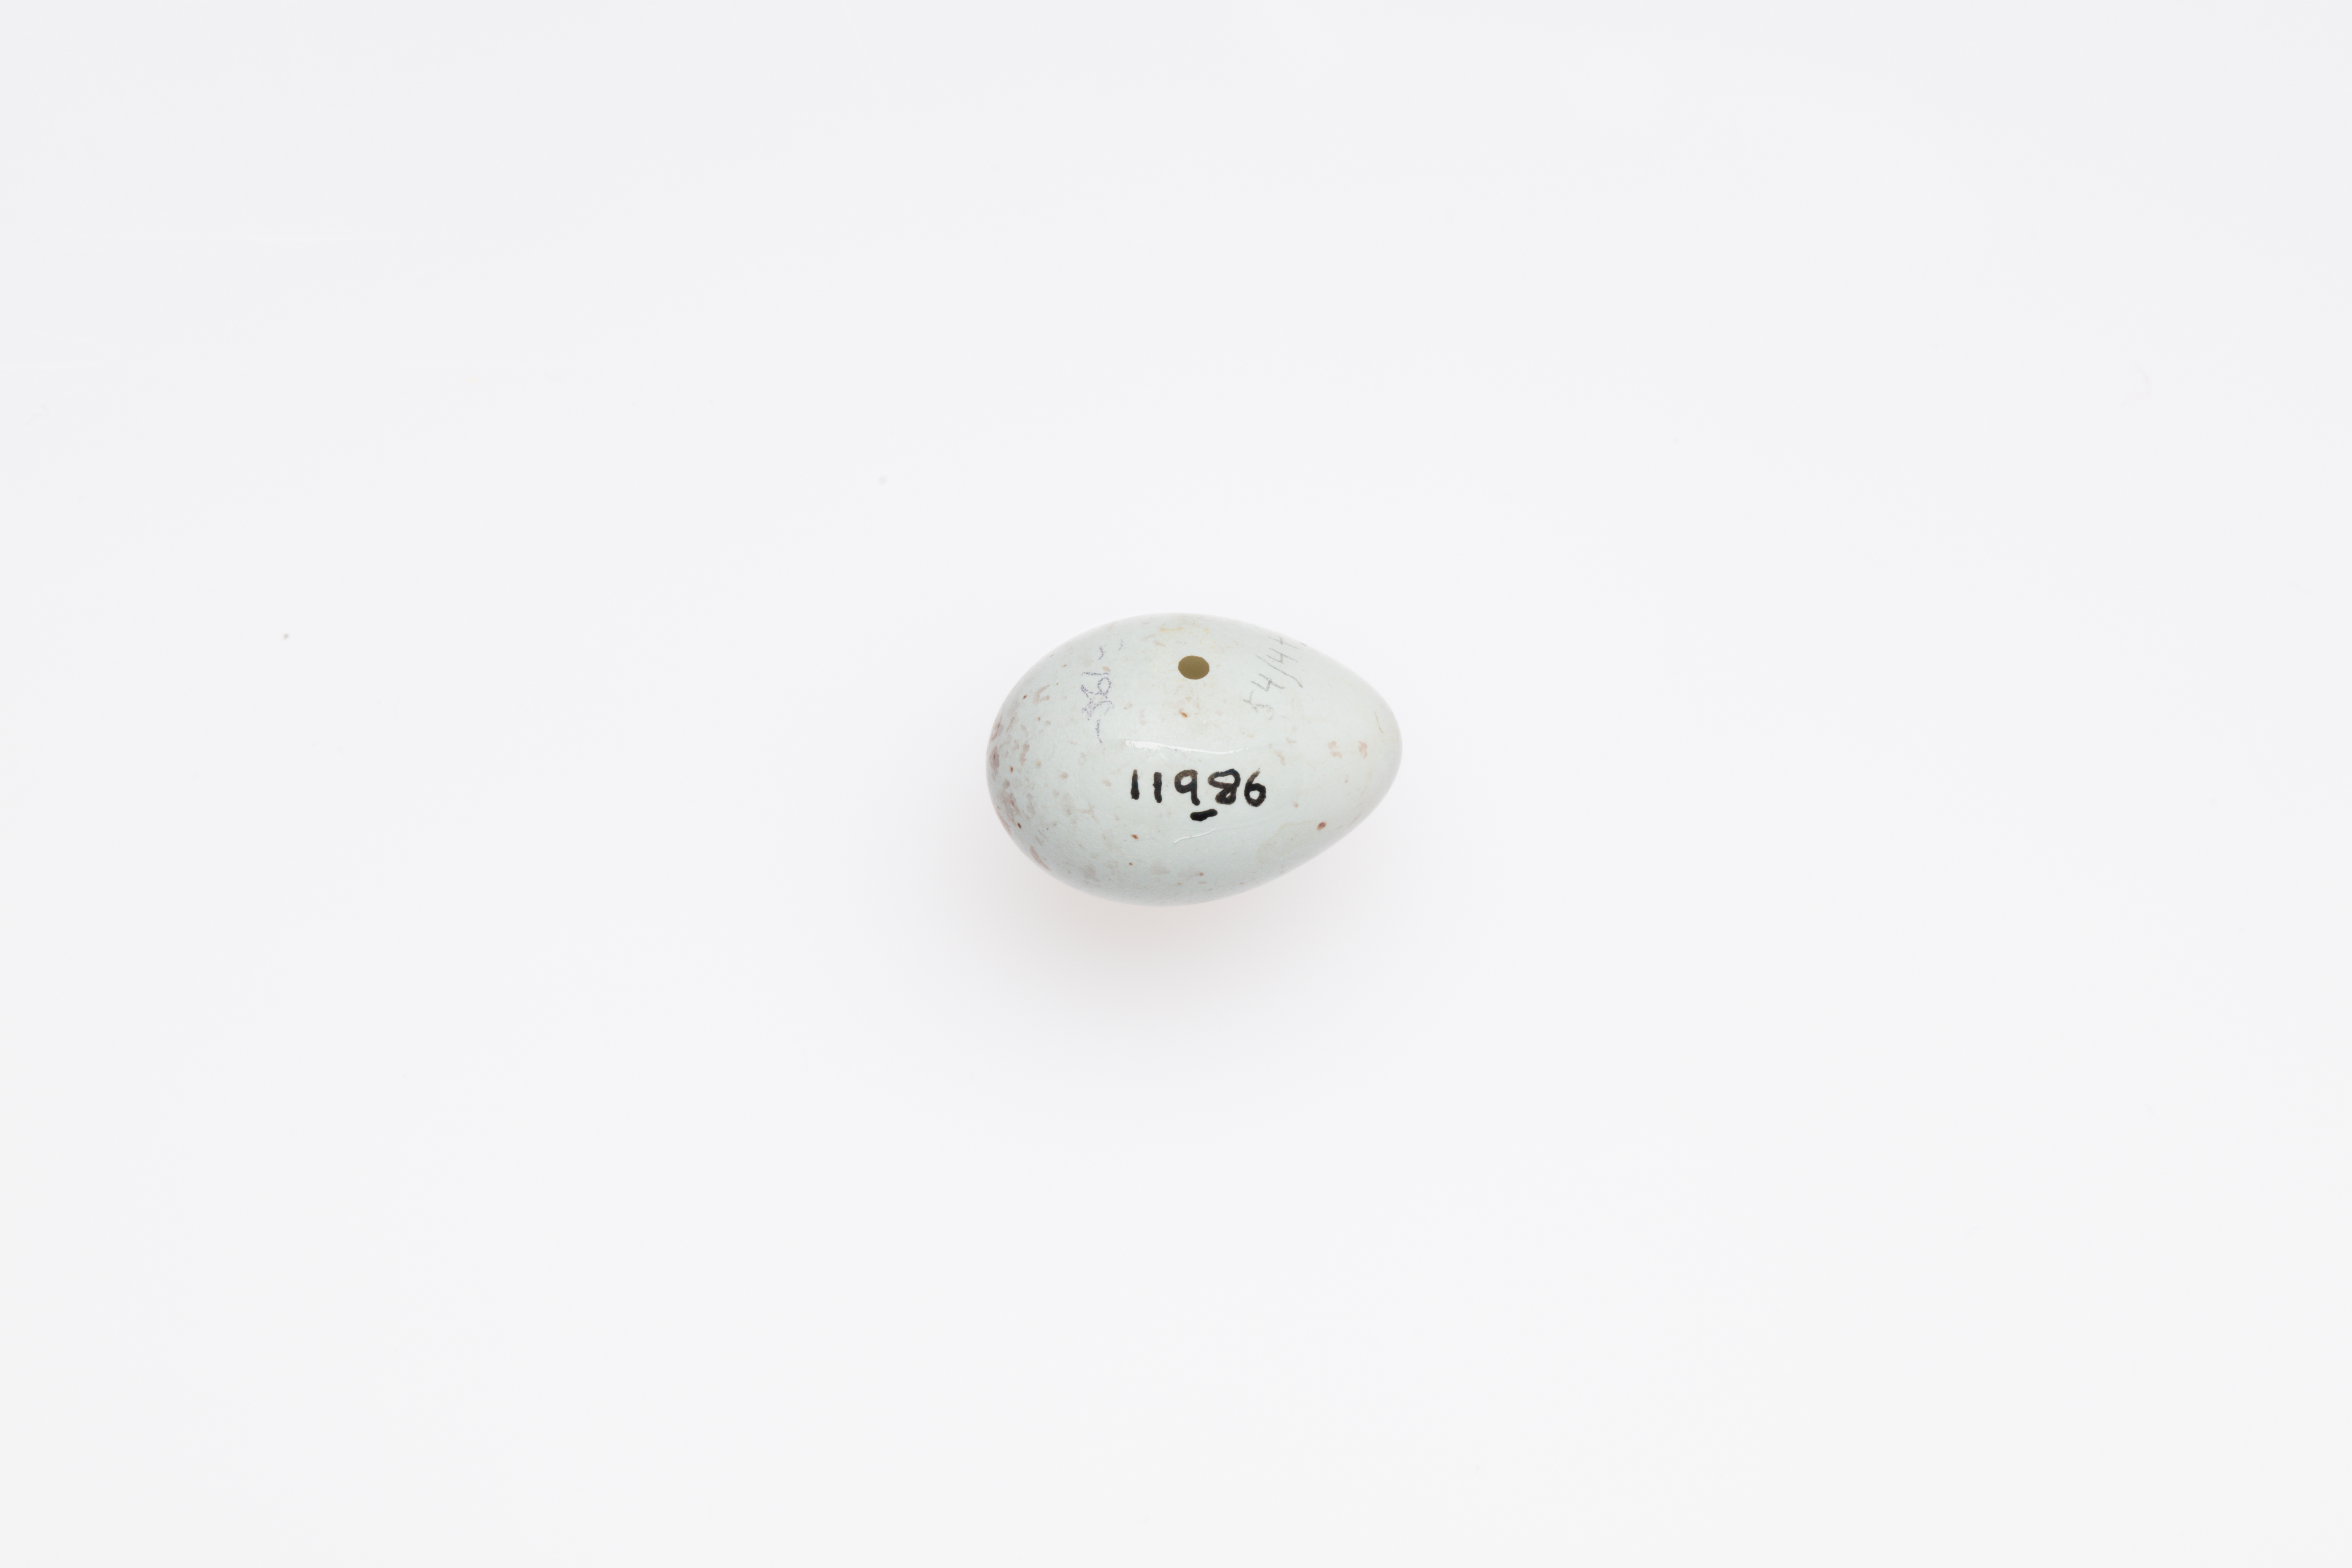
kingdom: Animalia
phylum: Chordata
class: Aves
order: Passeriformes
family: Passerellidae
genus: Spizella
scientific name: Spizella pallida
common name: Clay-colored sparrow
